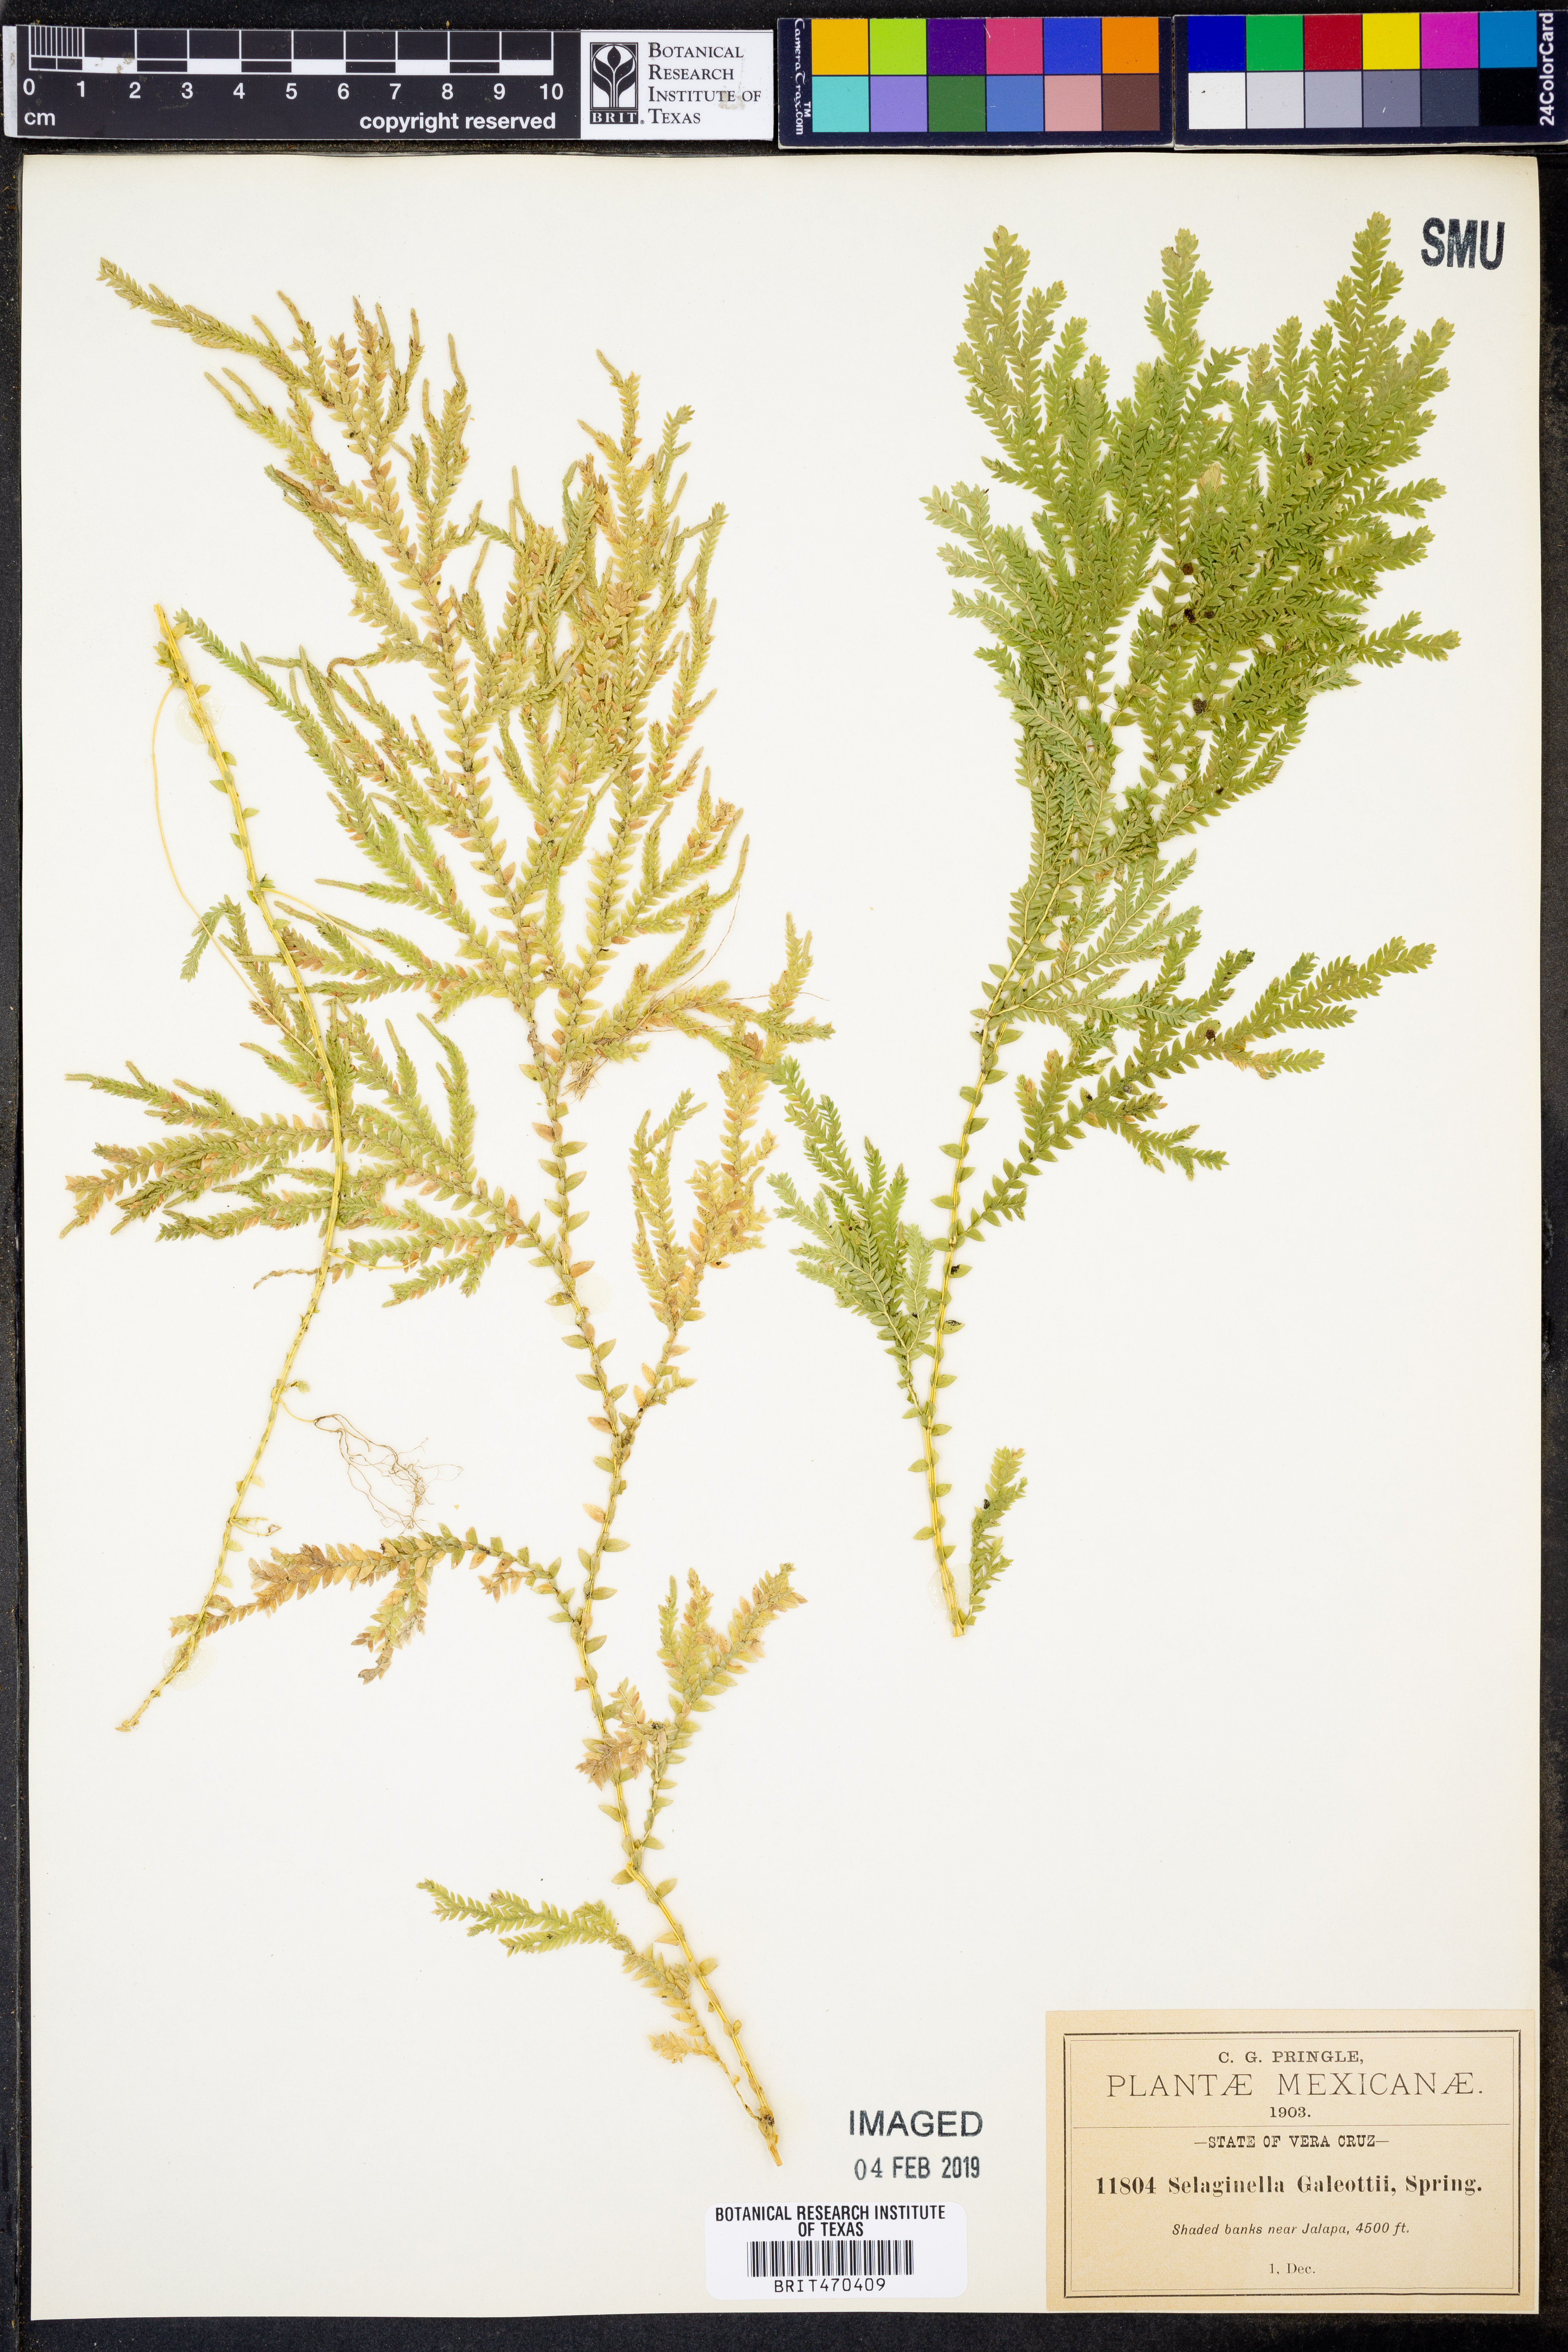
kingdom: Plantae
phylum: Tracheophyta
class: Lycopodiopsida
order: Selaginellales
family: Selaginellaceae
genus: Selaginella
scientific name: Selaginella stellata
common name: Starry spikemoss
